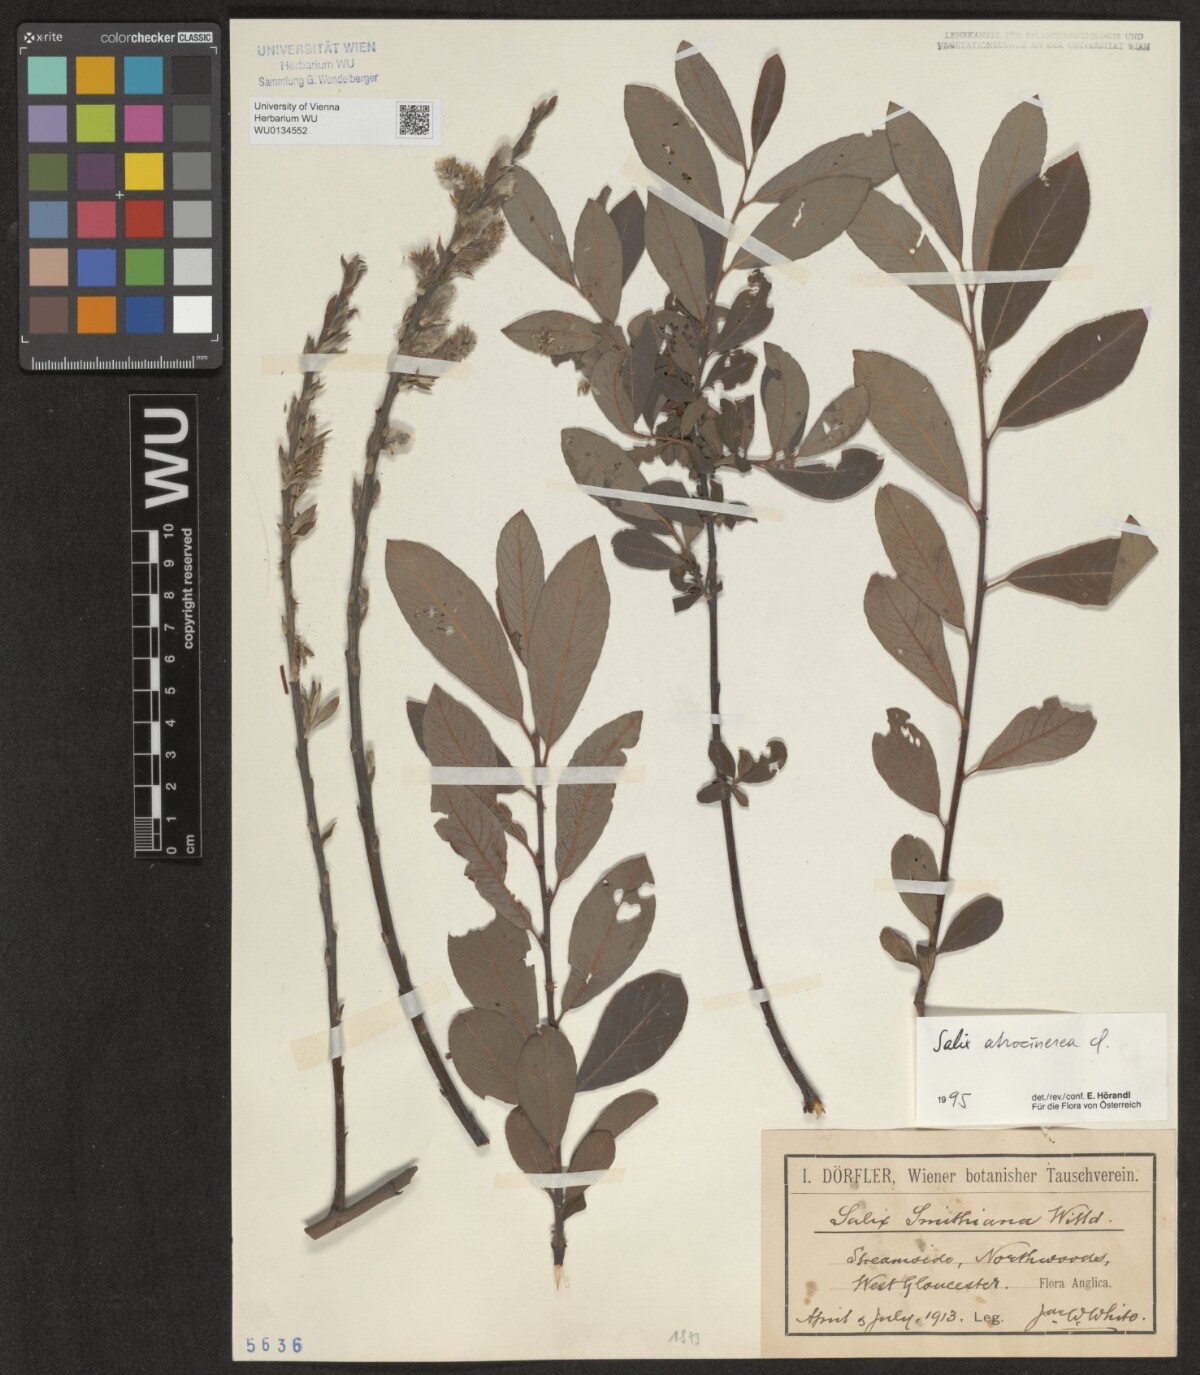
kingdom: Plantae
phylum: Tracheophyta
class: Magnoliopsida
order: Malpighiales
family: Salicaceae
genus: Salix
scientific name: Salix atrocinerea
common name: Rusty willow
